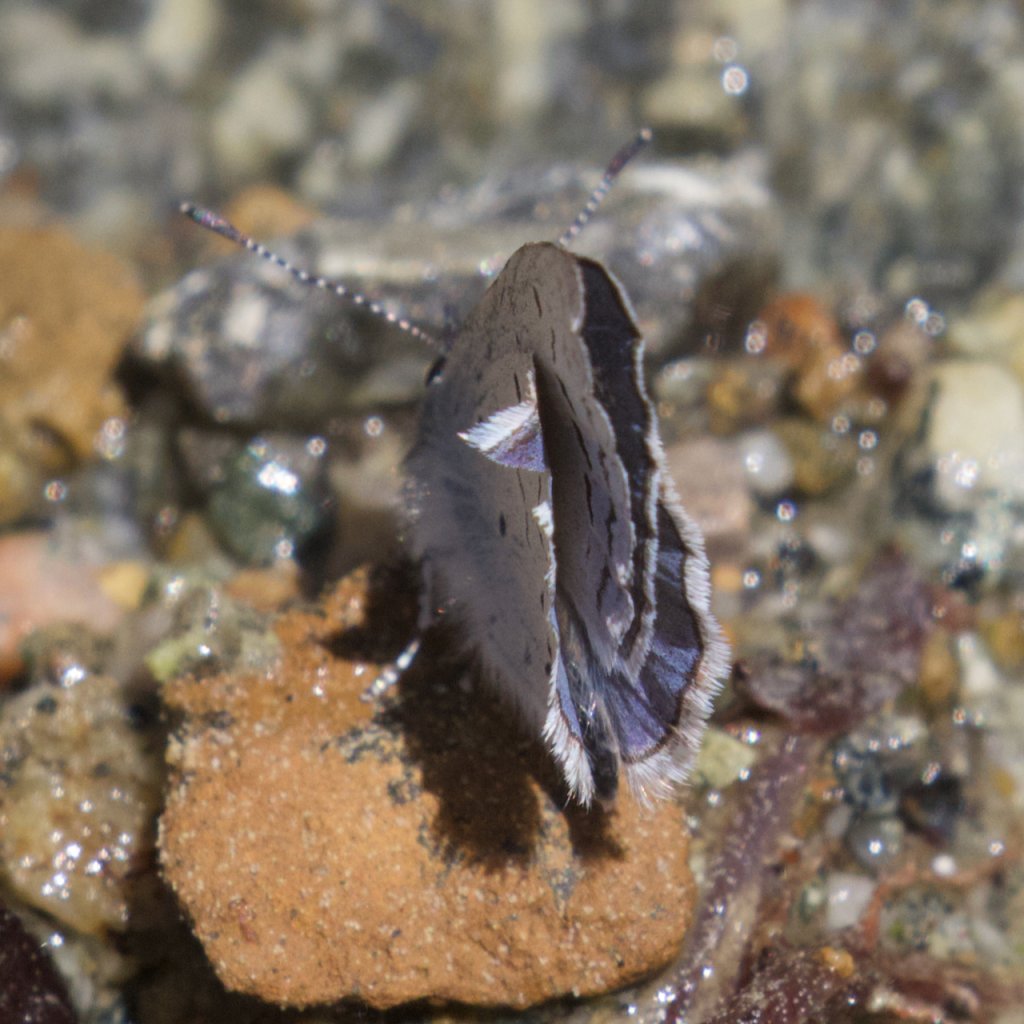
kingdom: Animalia
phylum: Arthropoda
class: Insecta
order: Lepidoptera
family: Lycaenidae
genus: Celastrina
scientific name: Celastrina ladon
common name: Echo Azure
